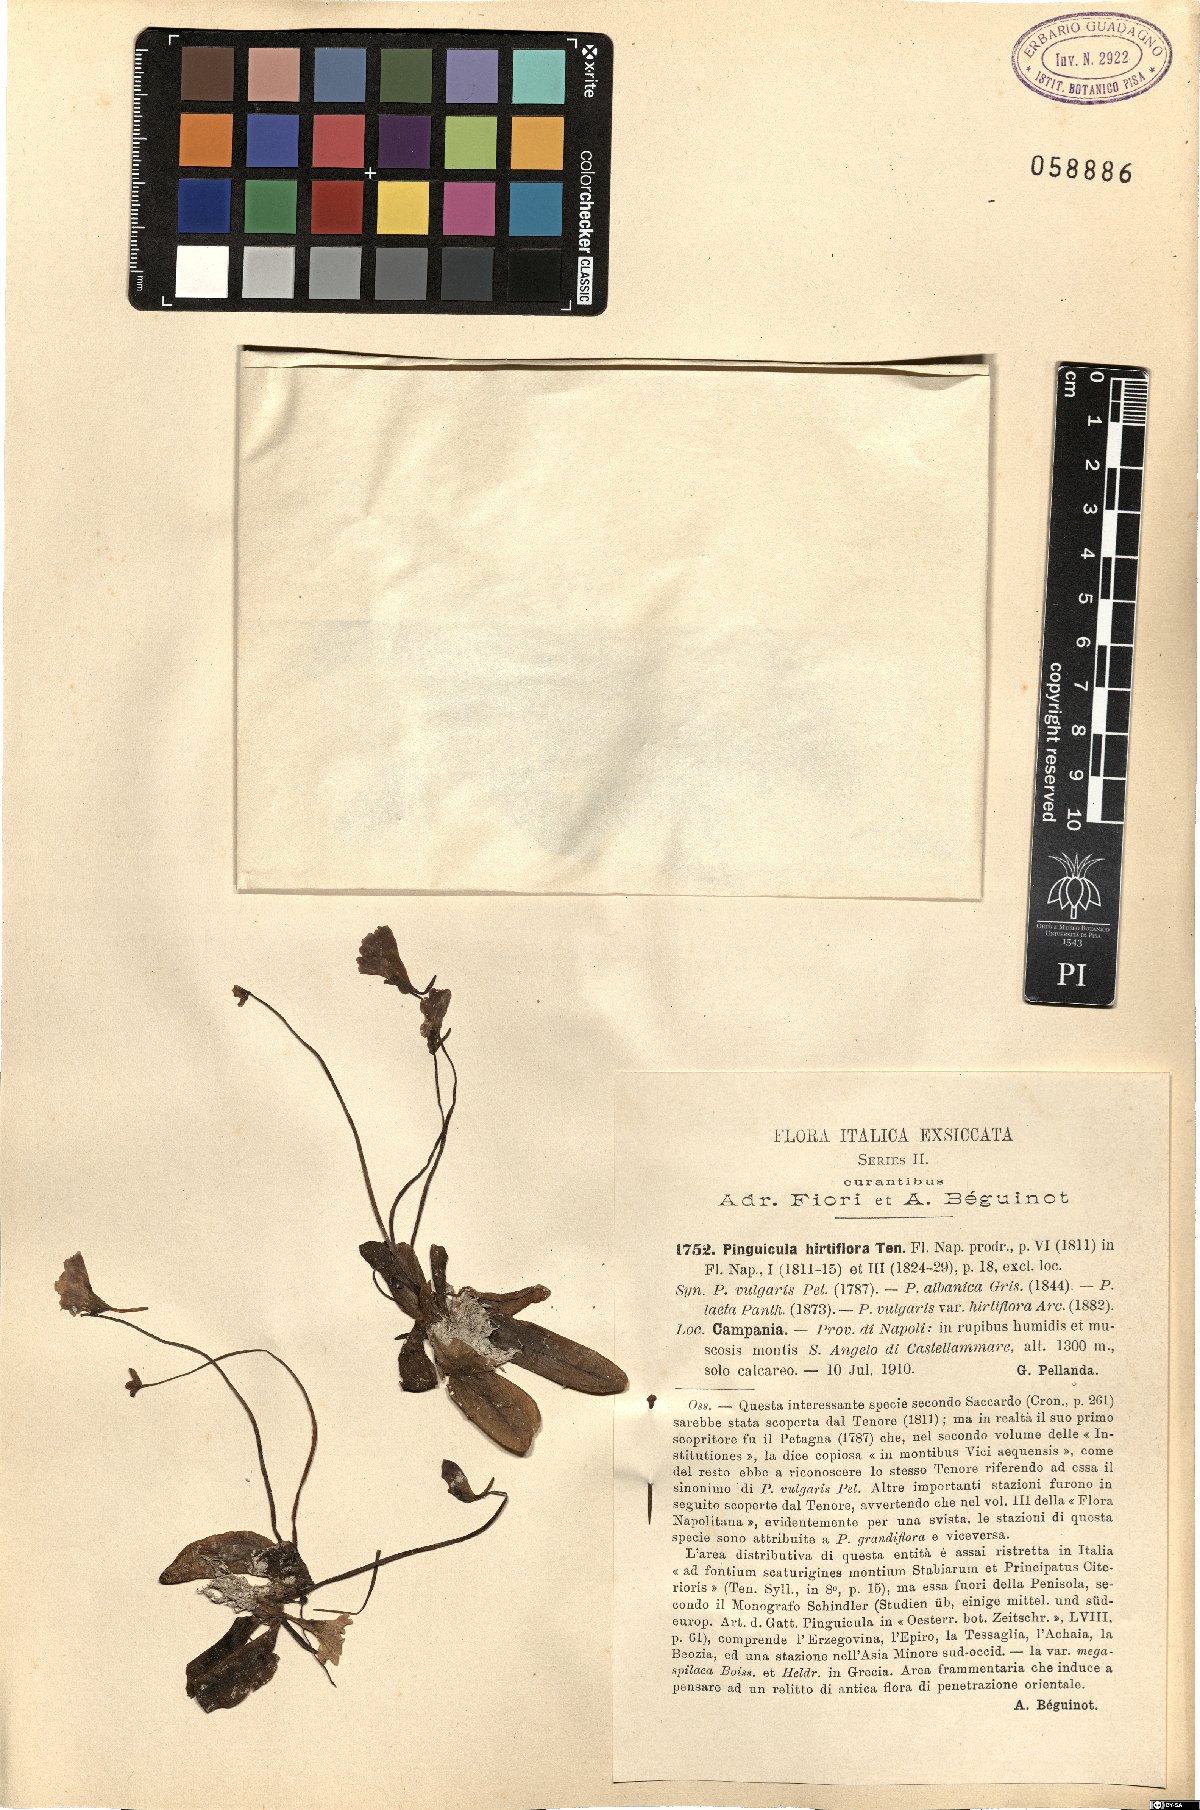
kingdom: Plantae
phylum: Tracheophyta
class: Magnoliopsida
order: Lamiales
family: Lentibulariaceae
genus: Pinguicula
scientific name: Pinguicula crystallina
